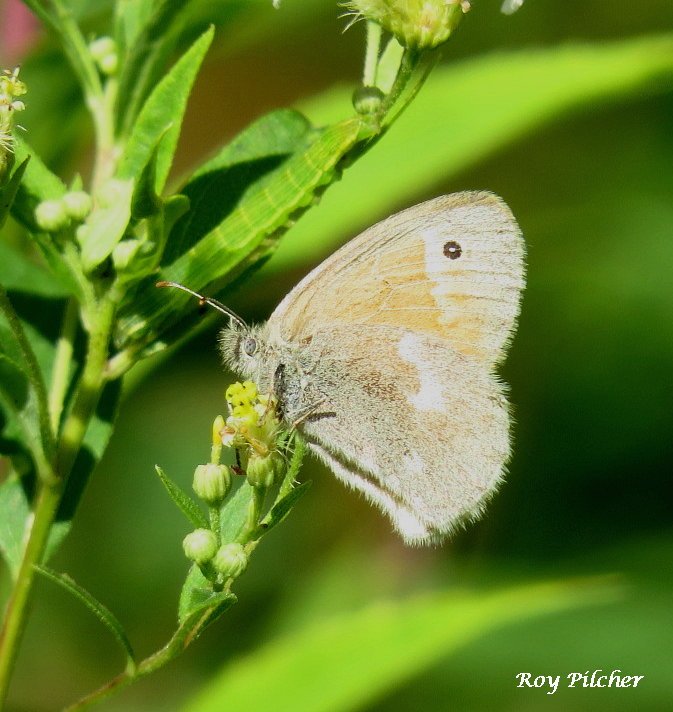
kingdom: Animalia
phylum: Arthropoda
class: Insecta
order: Lepidoptera
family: Nymphalidae
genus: Coenonympha
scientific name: Coenonympha tullia
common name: Large Heath
